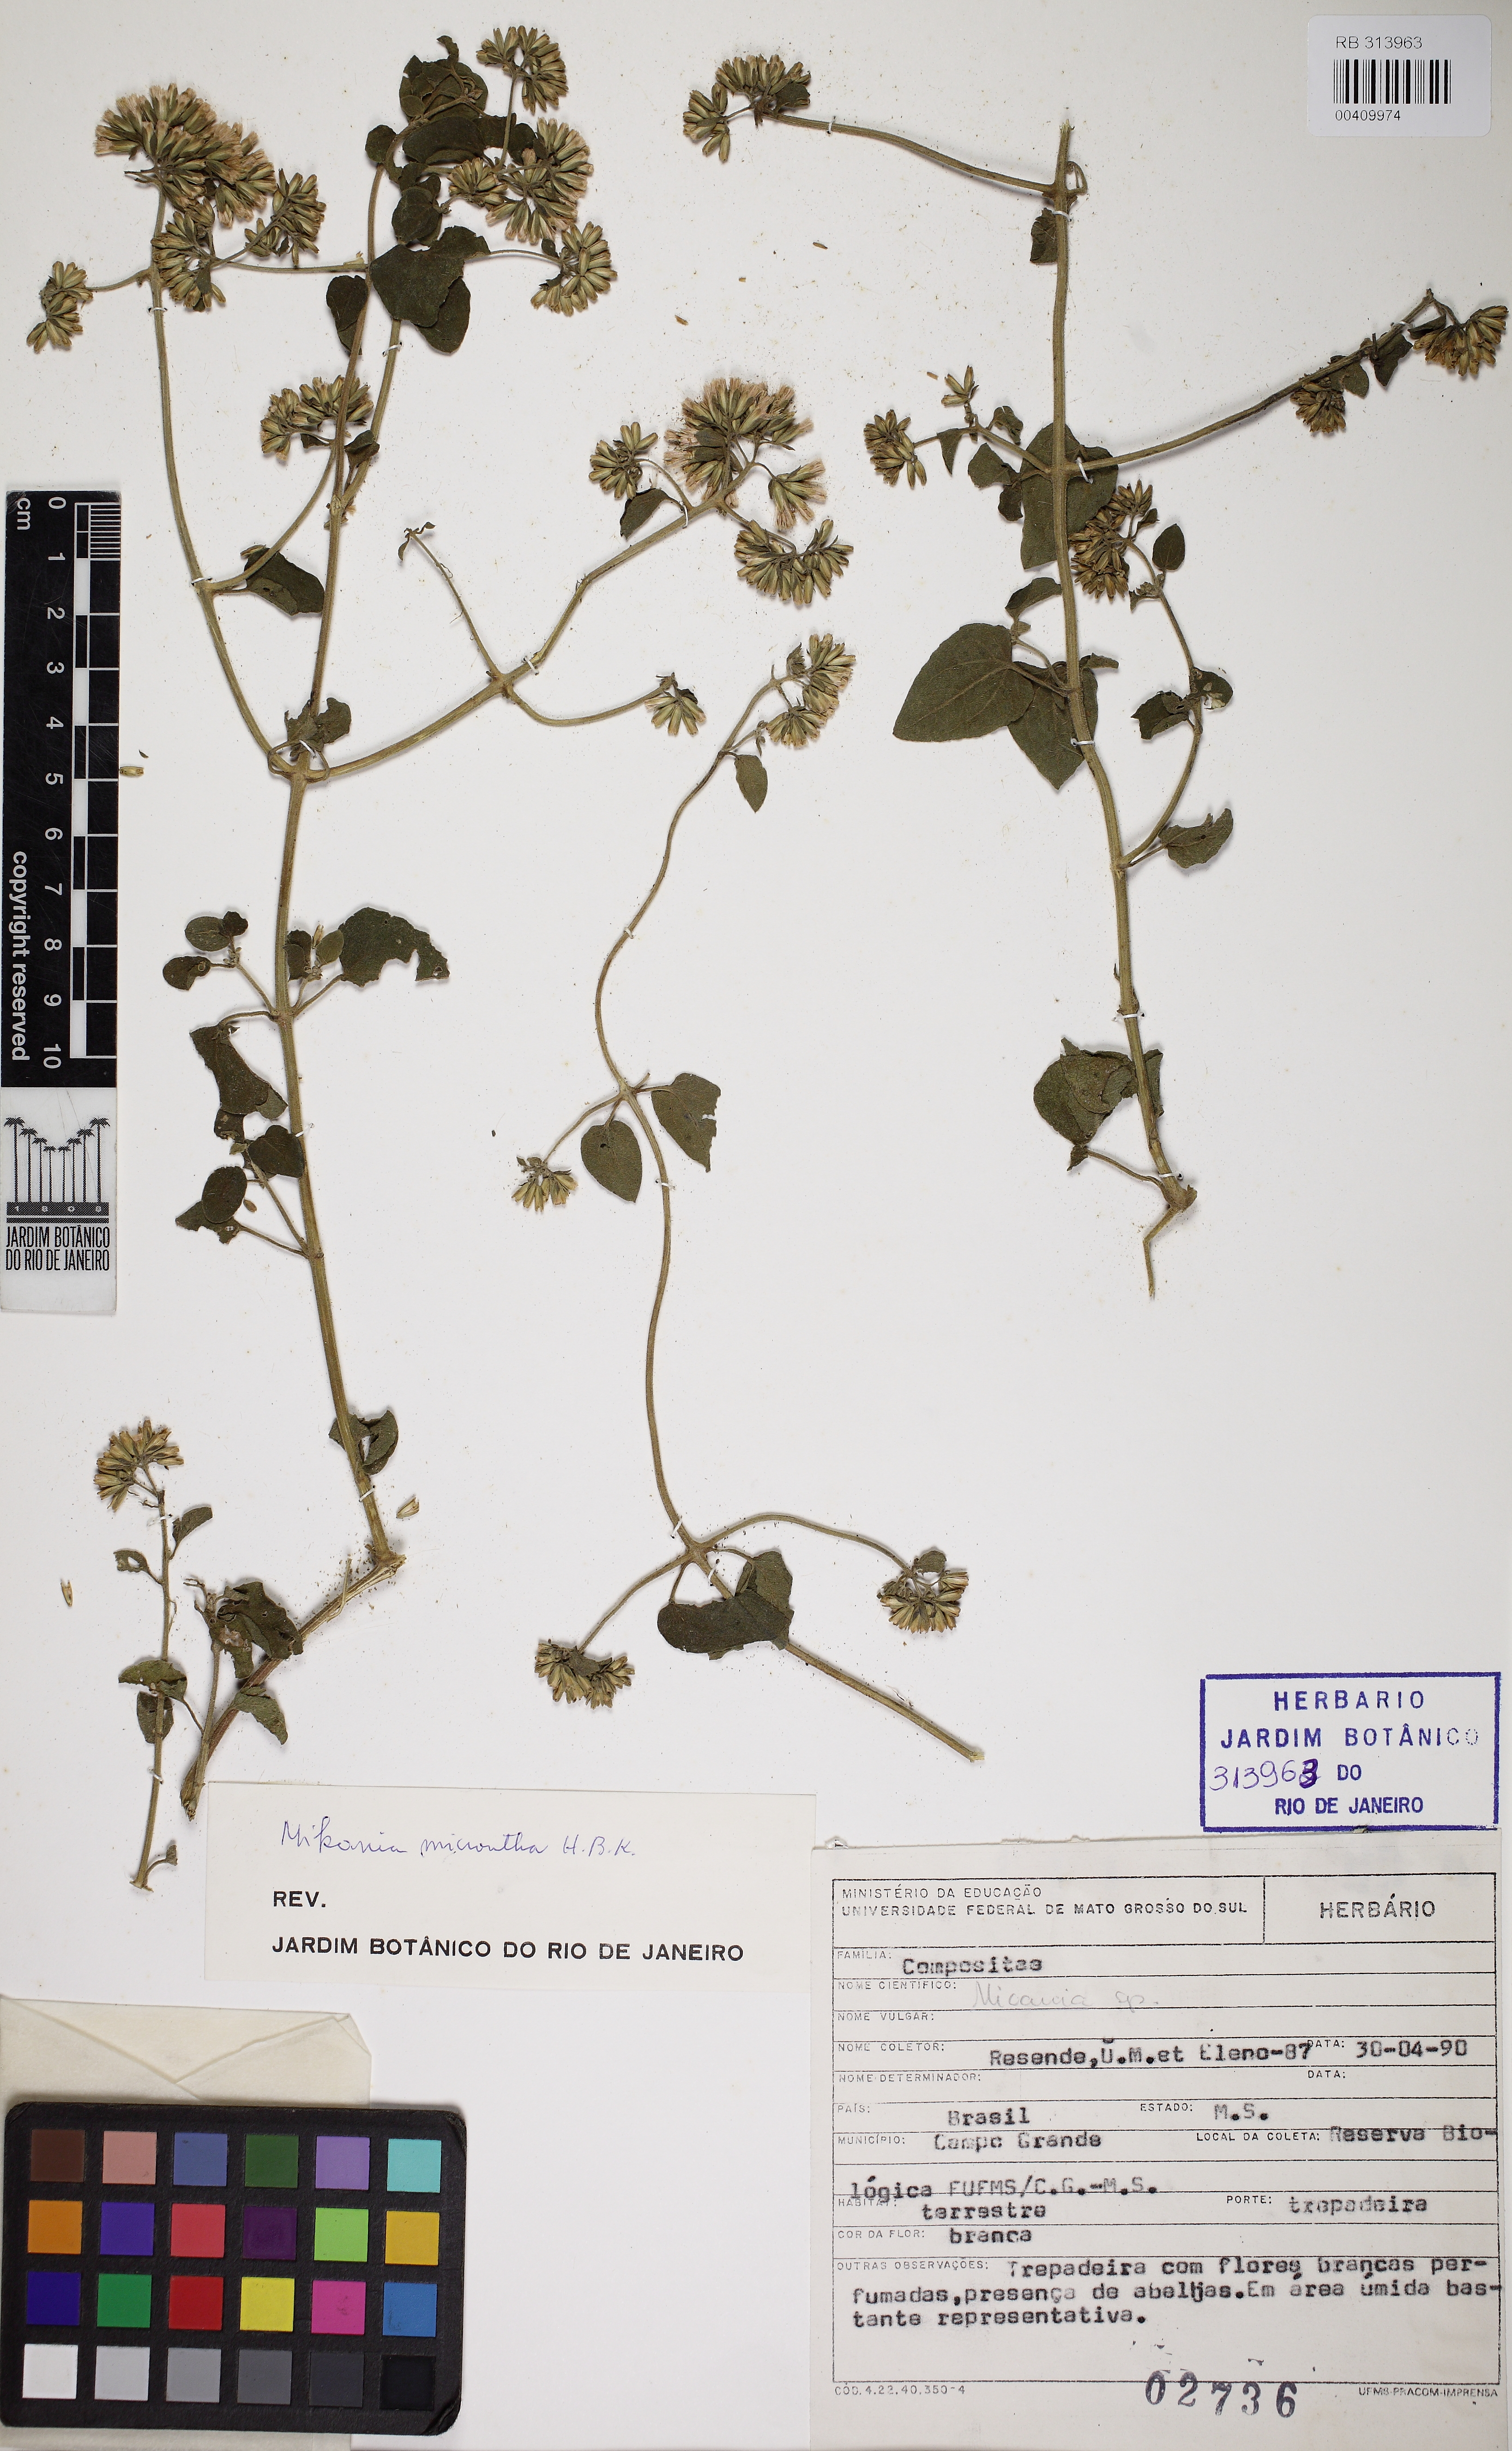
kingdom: Plantae
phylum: Tracheophyta
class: Magnoliopsida
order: Asterales
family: Asteraceae
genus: Mikania
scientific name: Mikania micrantha
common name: Mile-a-minute
